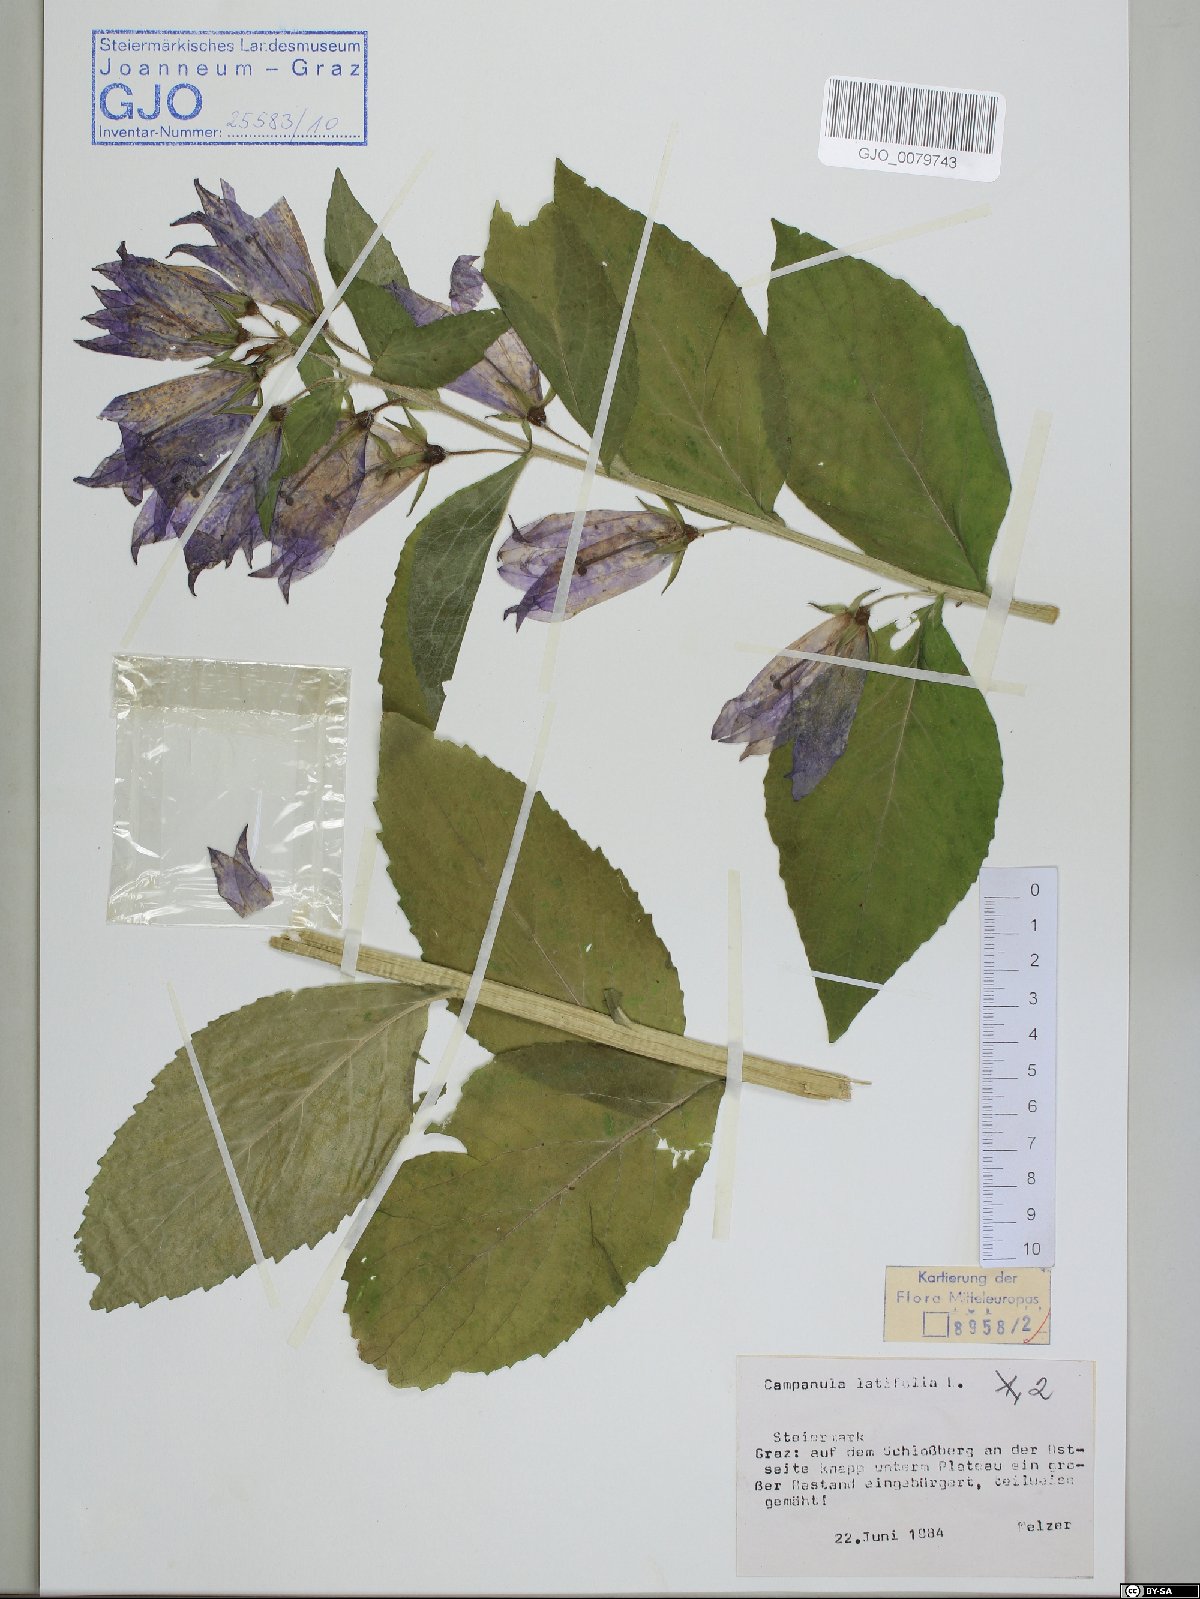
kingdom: Plantae
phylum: Tracheophyta
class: Magnoliopsida
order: Asterales
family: Campanulaceae
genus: Campanula
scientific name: Campanula latifolia
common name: Giant bellflower
